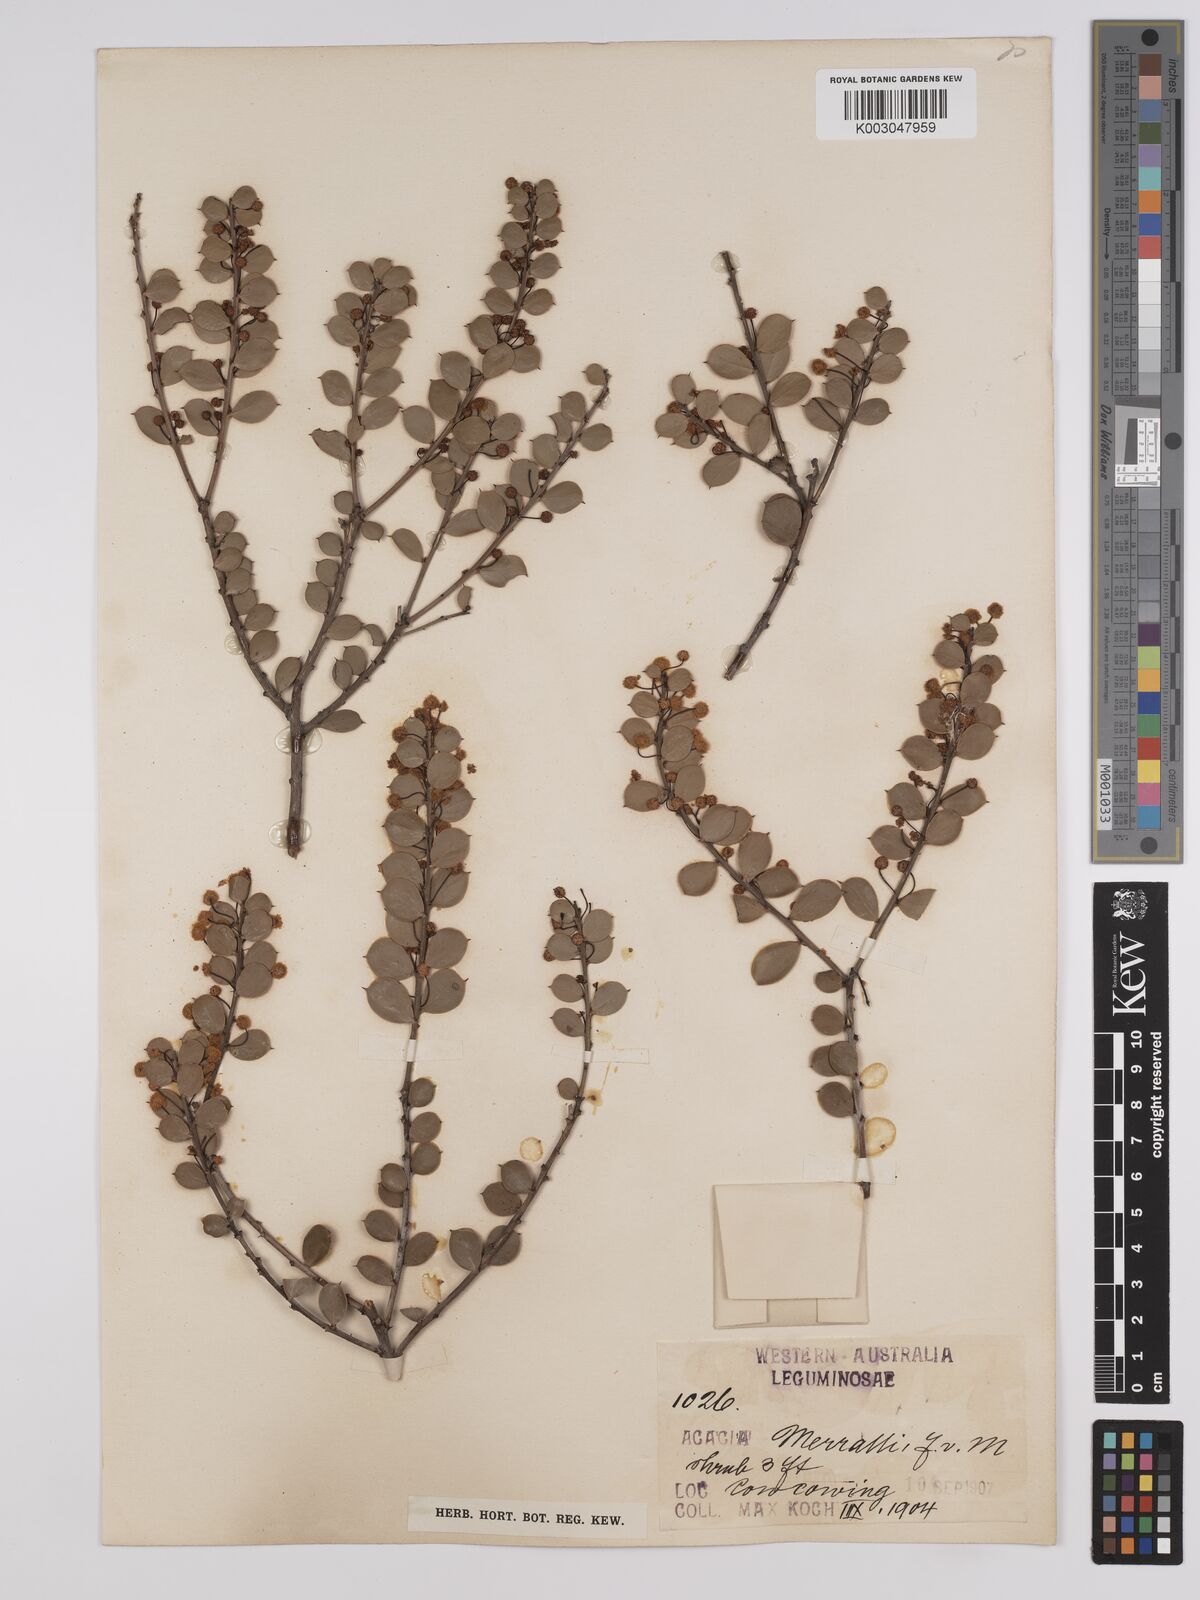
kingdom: Plantae
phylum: Tracheophyta
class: Magnoliopsida
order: Fabales
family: Fabaceae
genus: Acacia
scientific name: Acacia merrallii
